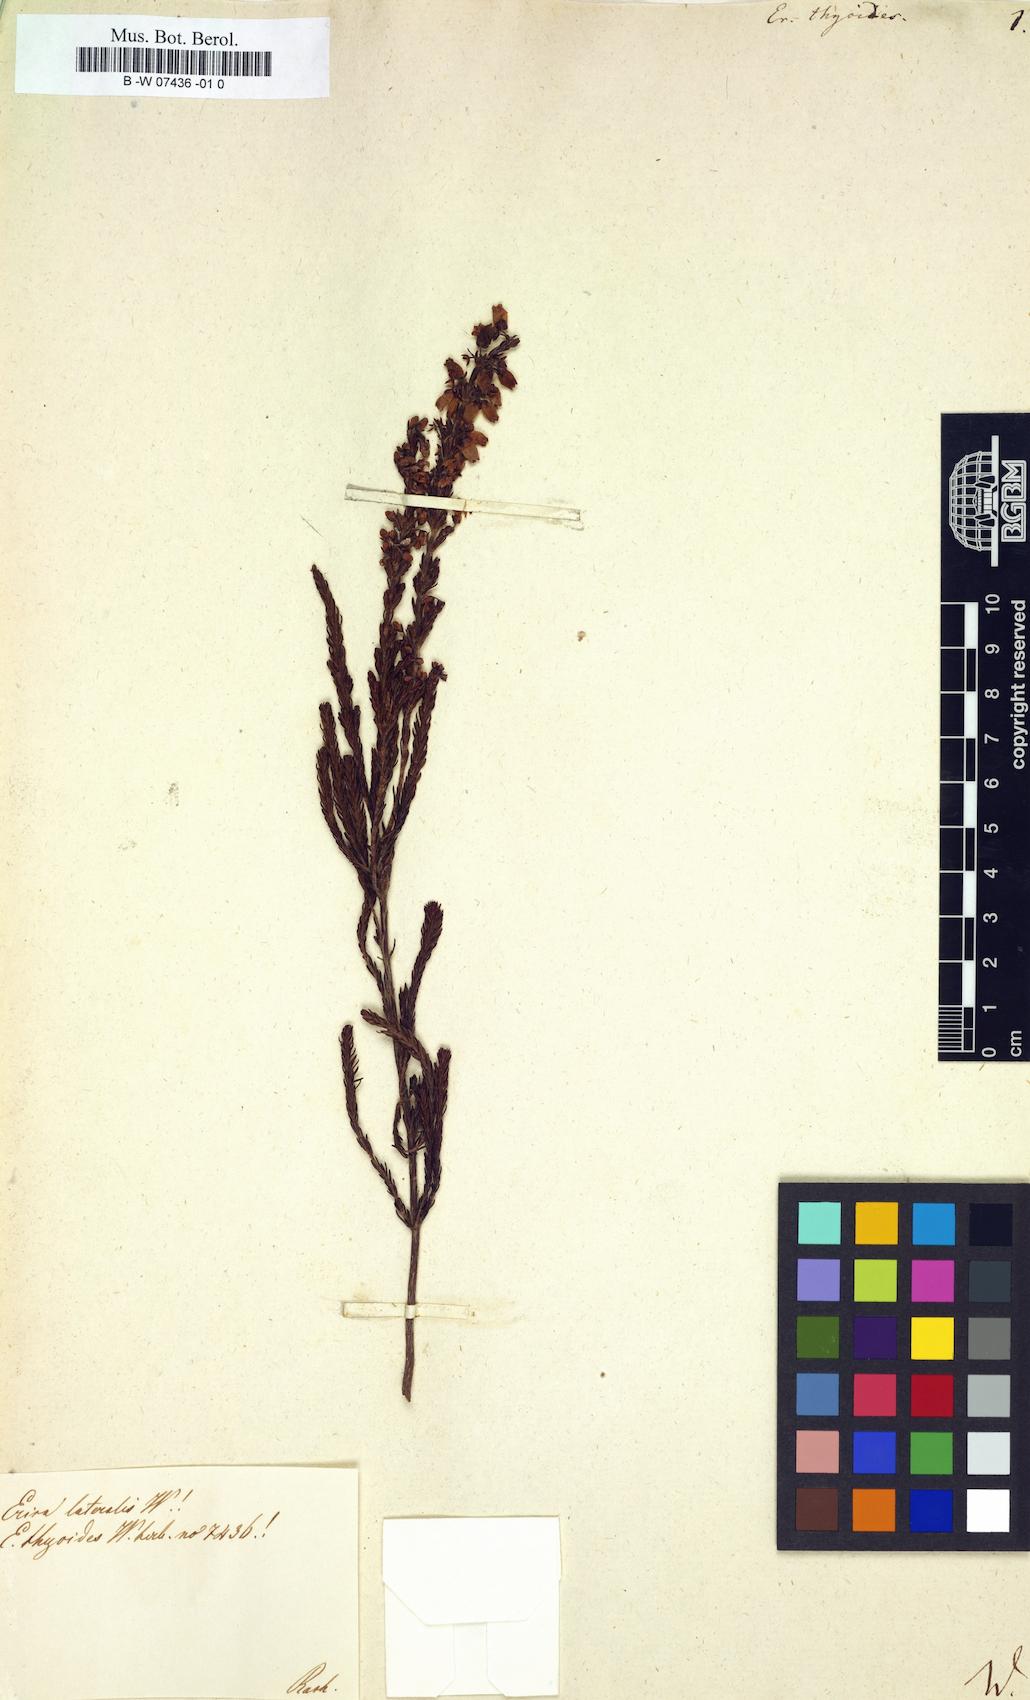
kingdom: Plantae
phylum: Tracheophyta
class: Magnoliopsida
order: Ericales
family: Ericaceae
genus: Erica
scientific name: Erica
